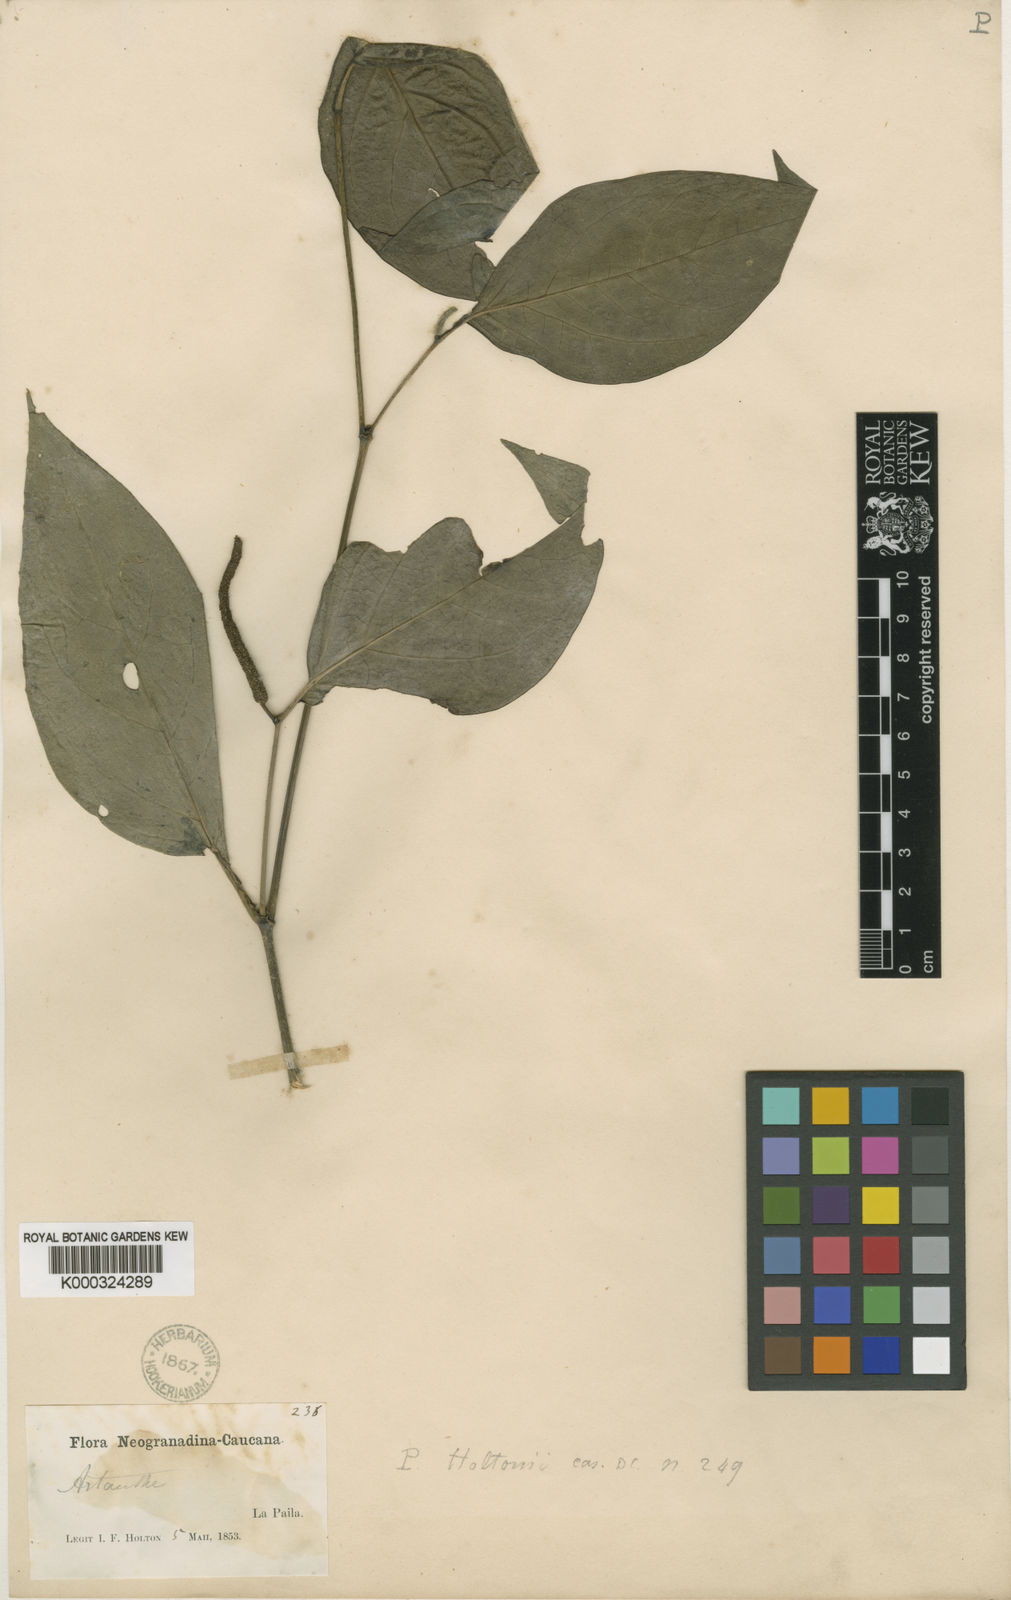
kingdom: Plantae
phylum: Tracheophyta
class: Magnoliopsida
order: Piperales
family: Piperaceae
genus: Piper
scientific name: Piper holtonii
